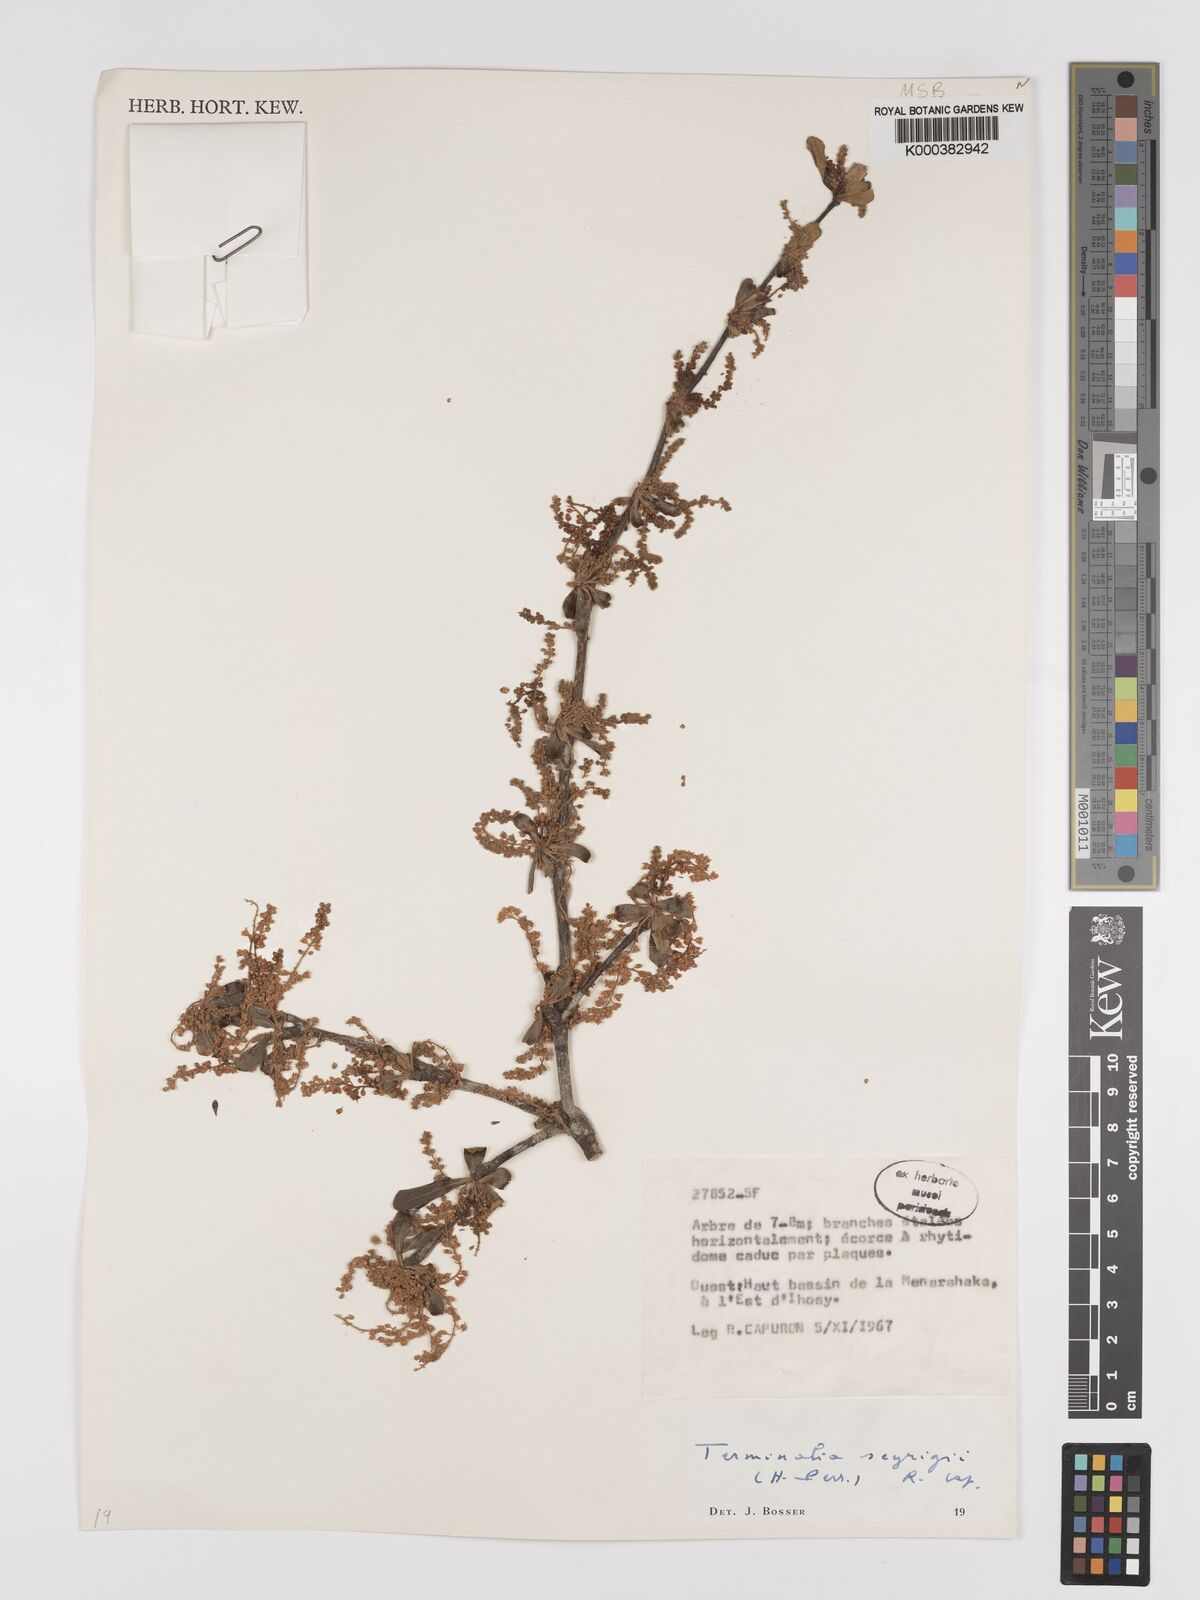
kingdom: Plantae
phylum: Tracheophyta
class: Magnoliopsida
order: Myrtales
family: Combretaceae
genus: Terminalia
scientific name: Terminalia seyrigii
